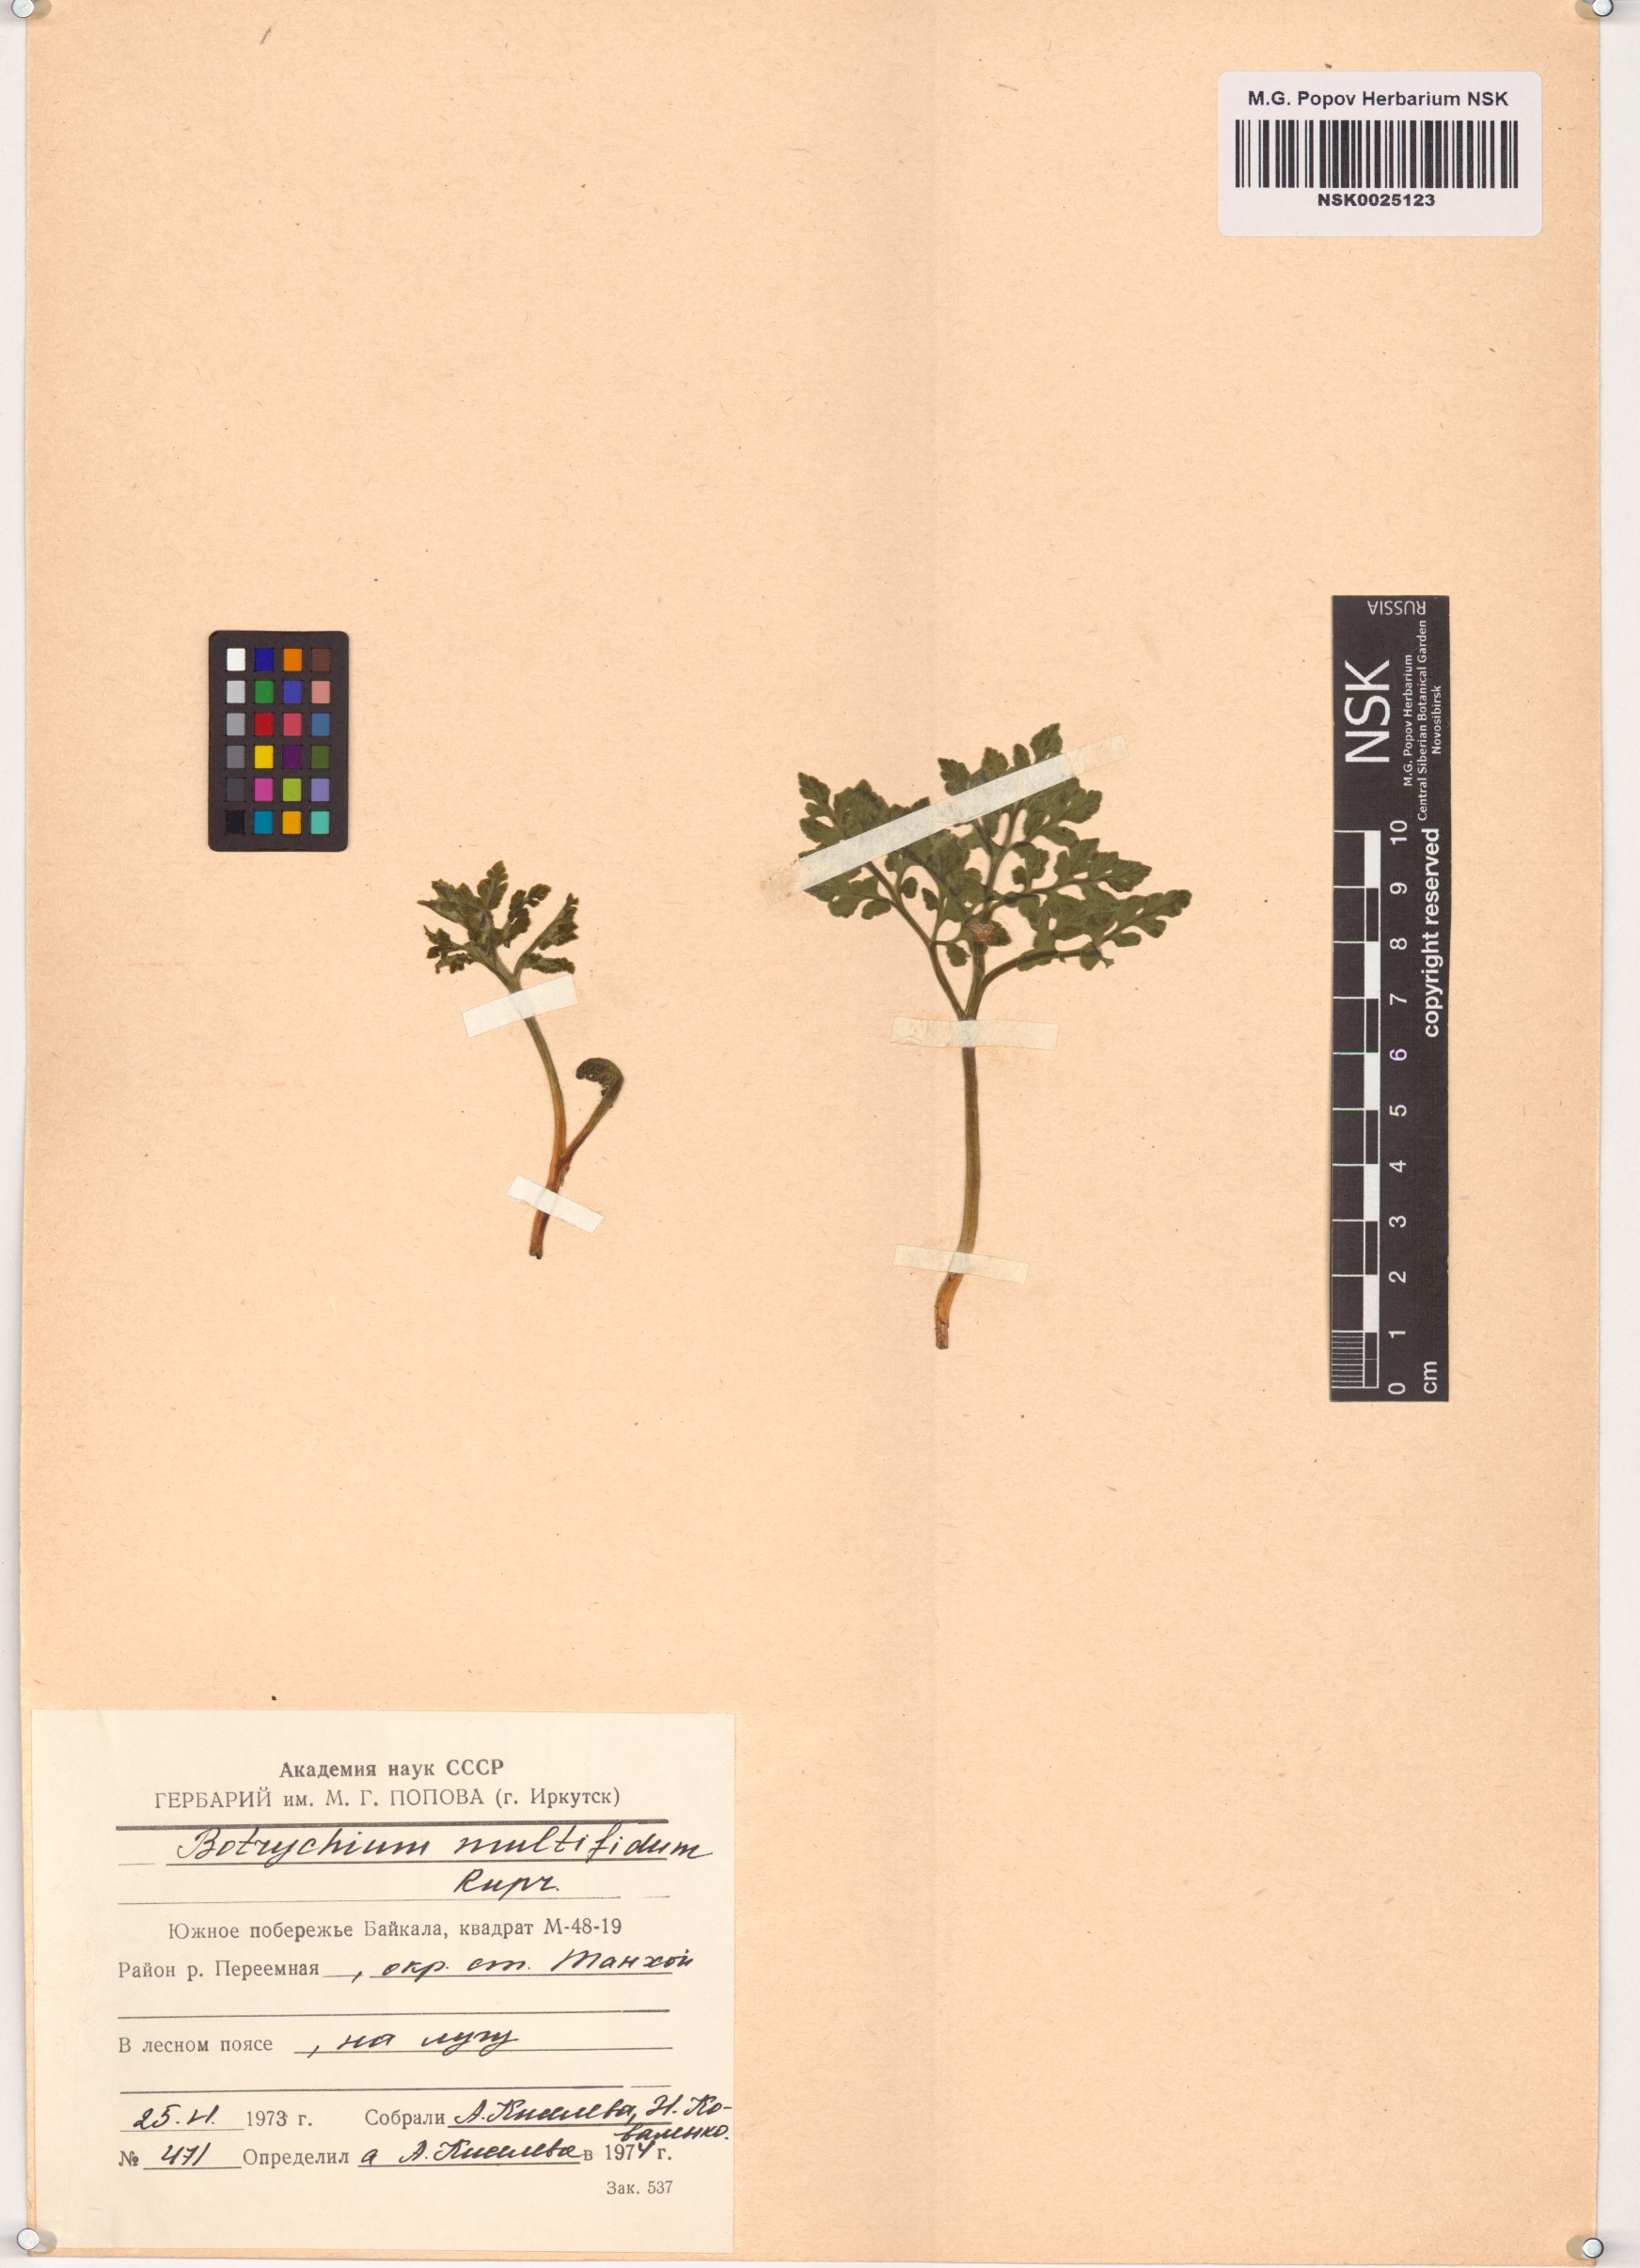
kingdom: Plantae
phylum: Tracheophyta
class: Polypodiopsida
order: Ophioglossales
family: Ophioglossaceae
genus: Sceptridium
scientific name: Sceptridium multifidum
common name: Leathery grape fern
